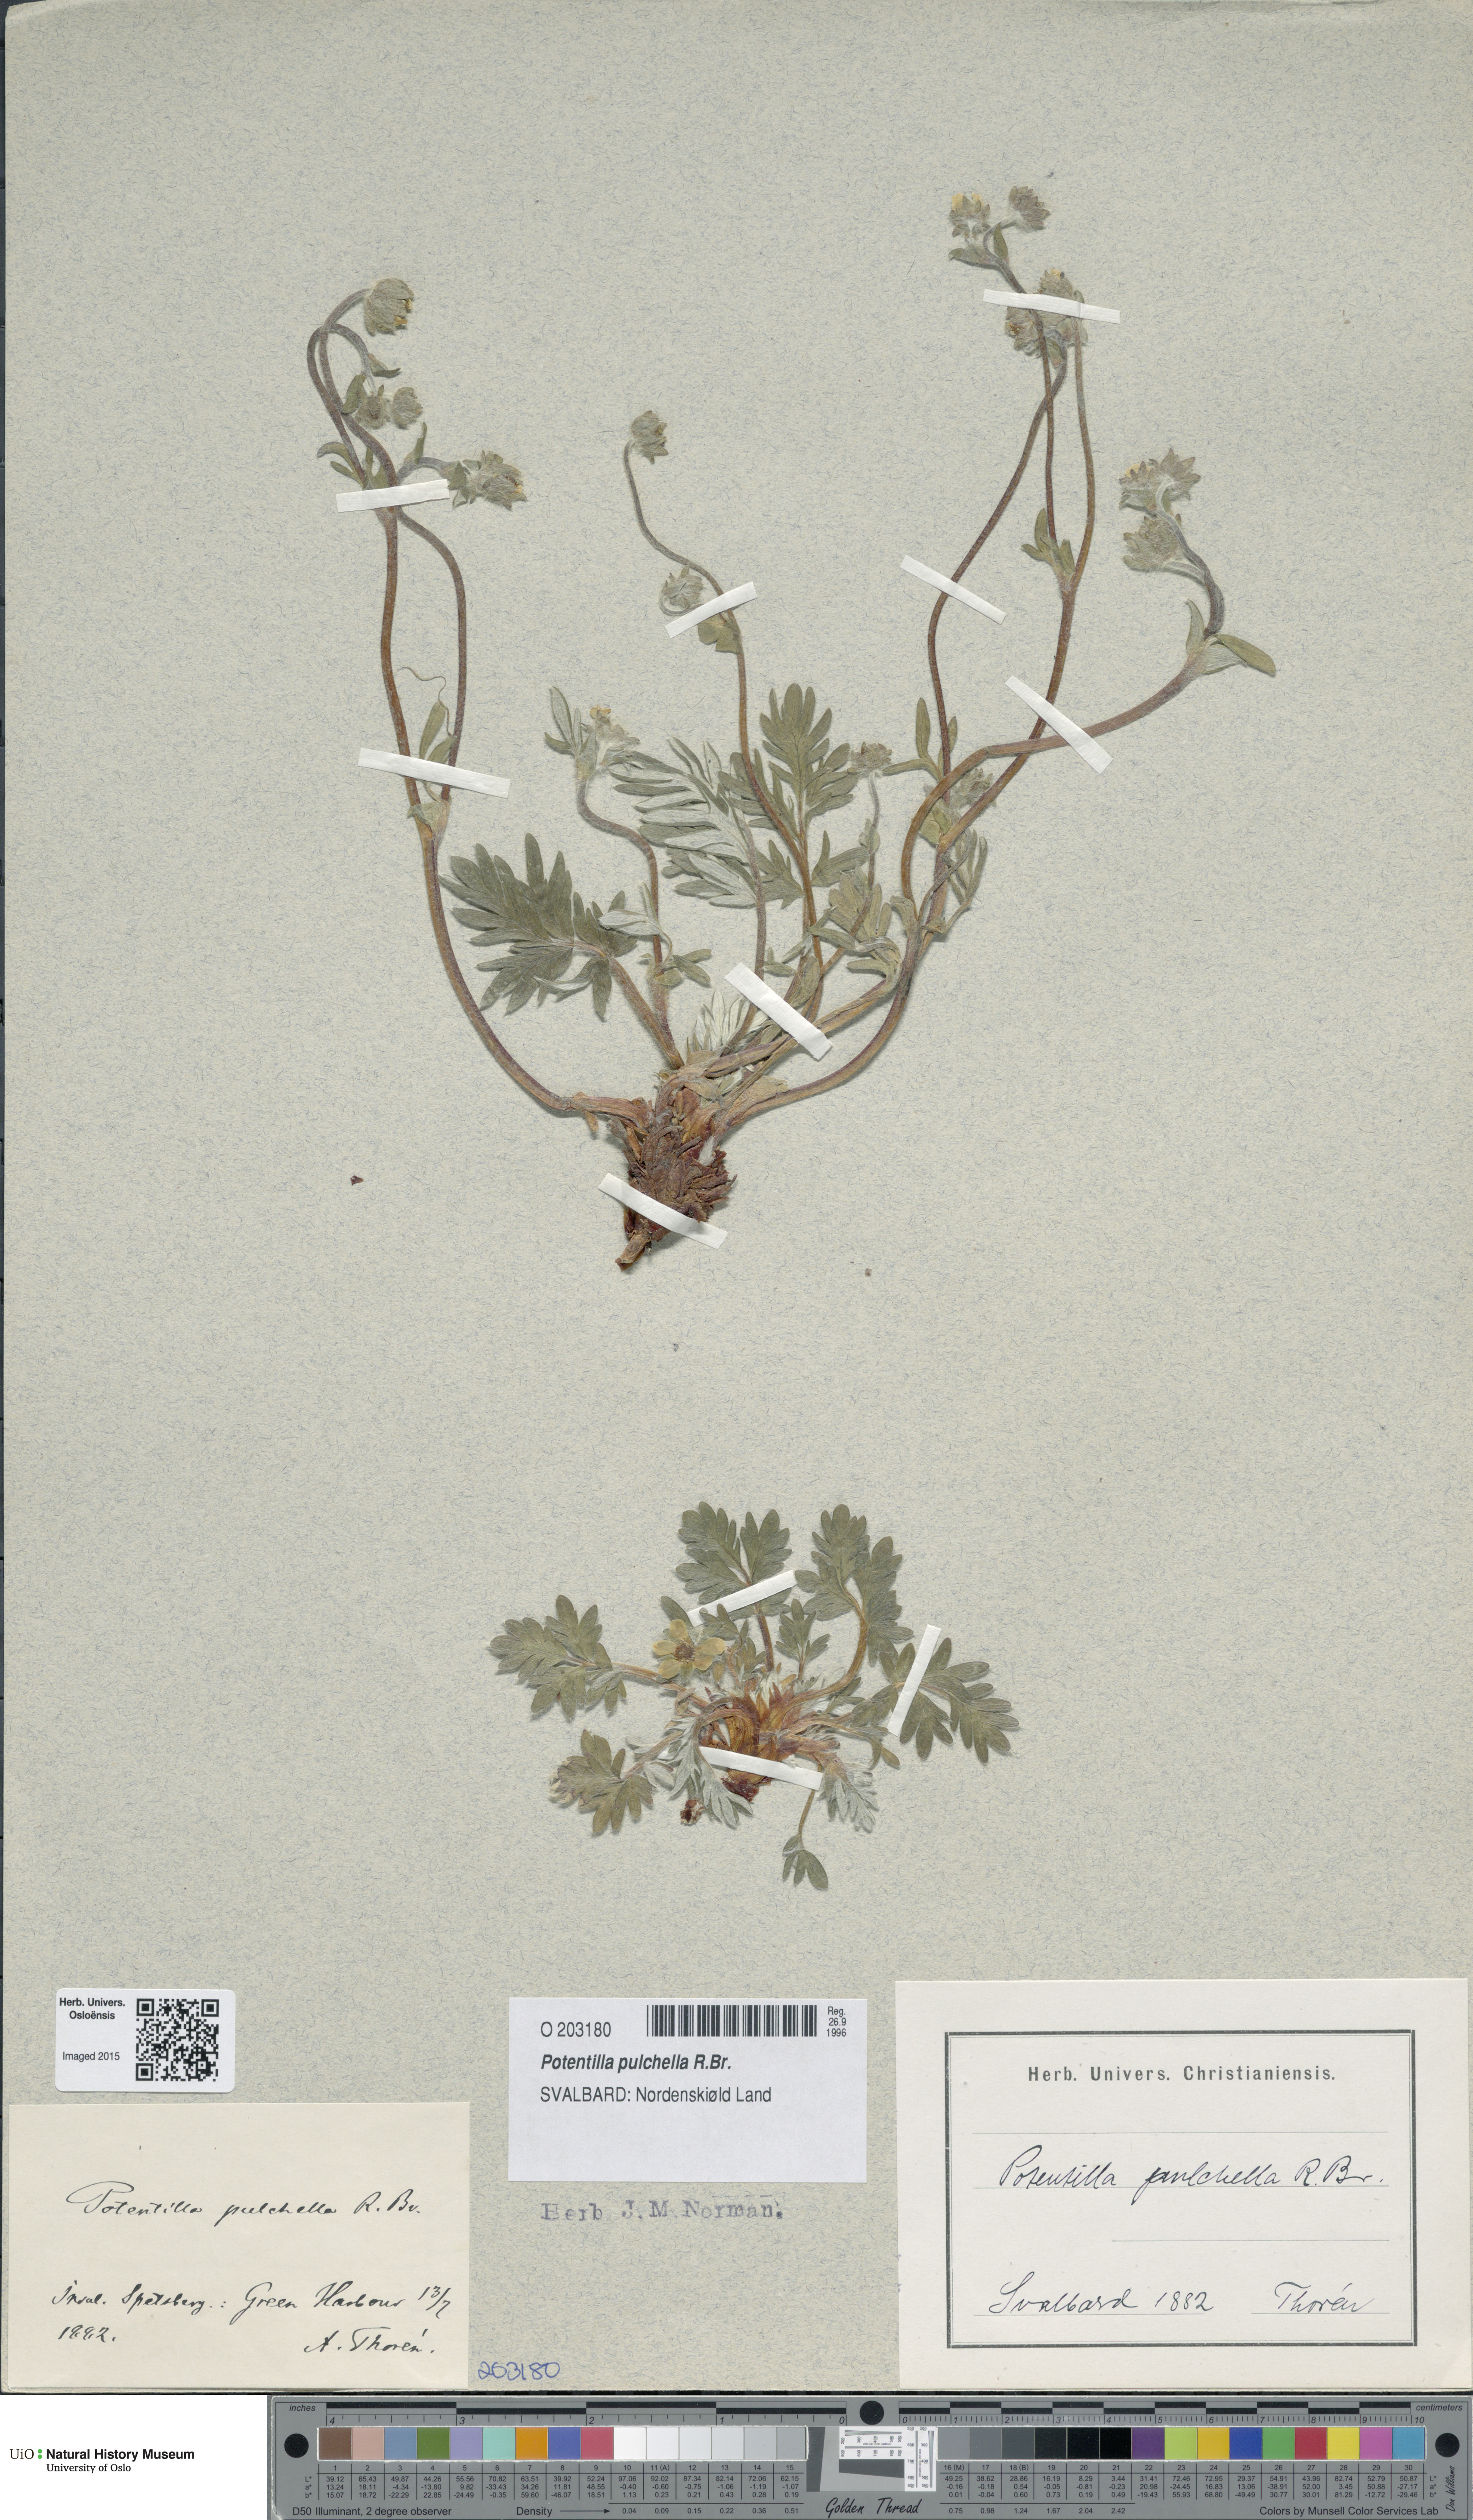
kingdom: Plantae
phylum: Tracheophyta
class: Magnoliopsida
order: Rosales
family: Rosaceae
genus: Potentilla
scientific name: Potentilla pulchella
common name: Pretty cinquefoil
